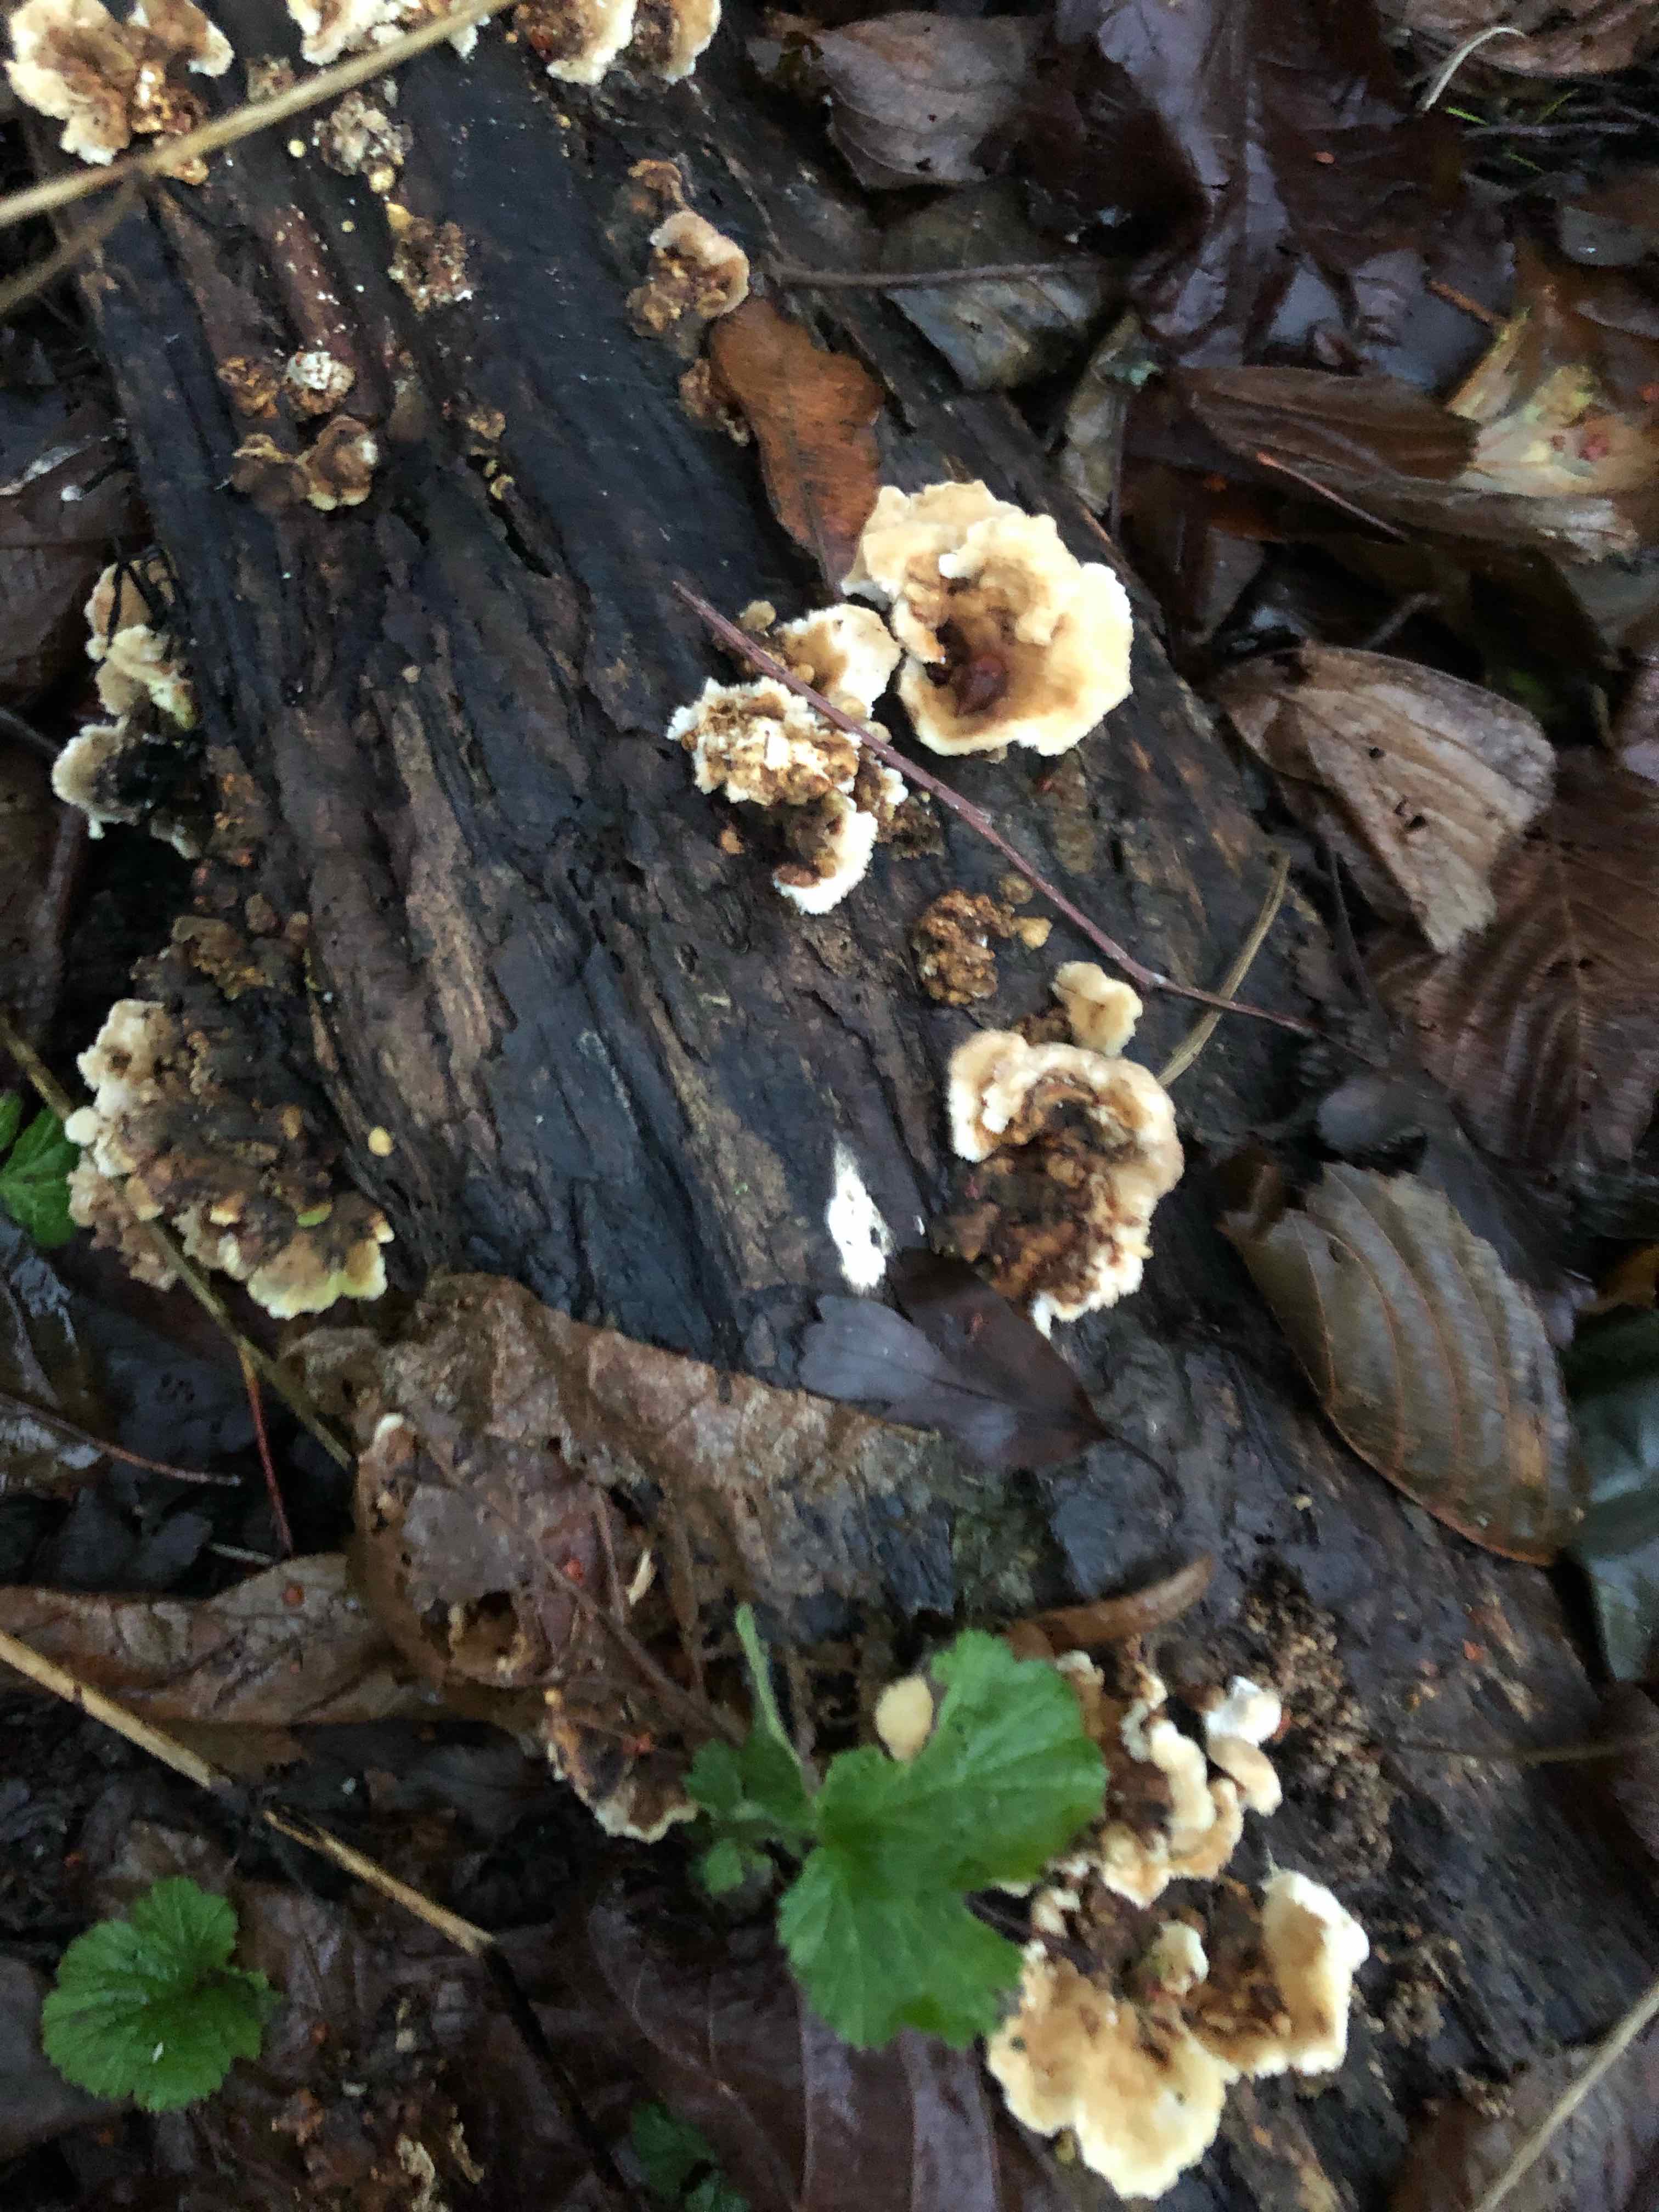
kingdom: Fungi
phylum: Basidiomycota
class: Agaricomycetes
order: Polyporales
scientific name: Polyporales
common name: poresvampordenen
